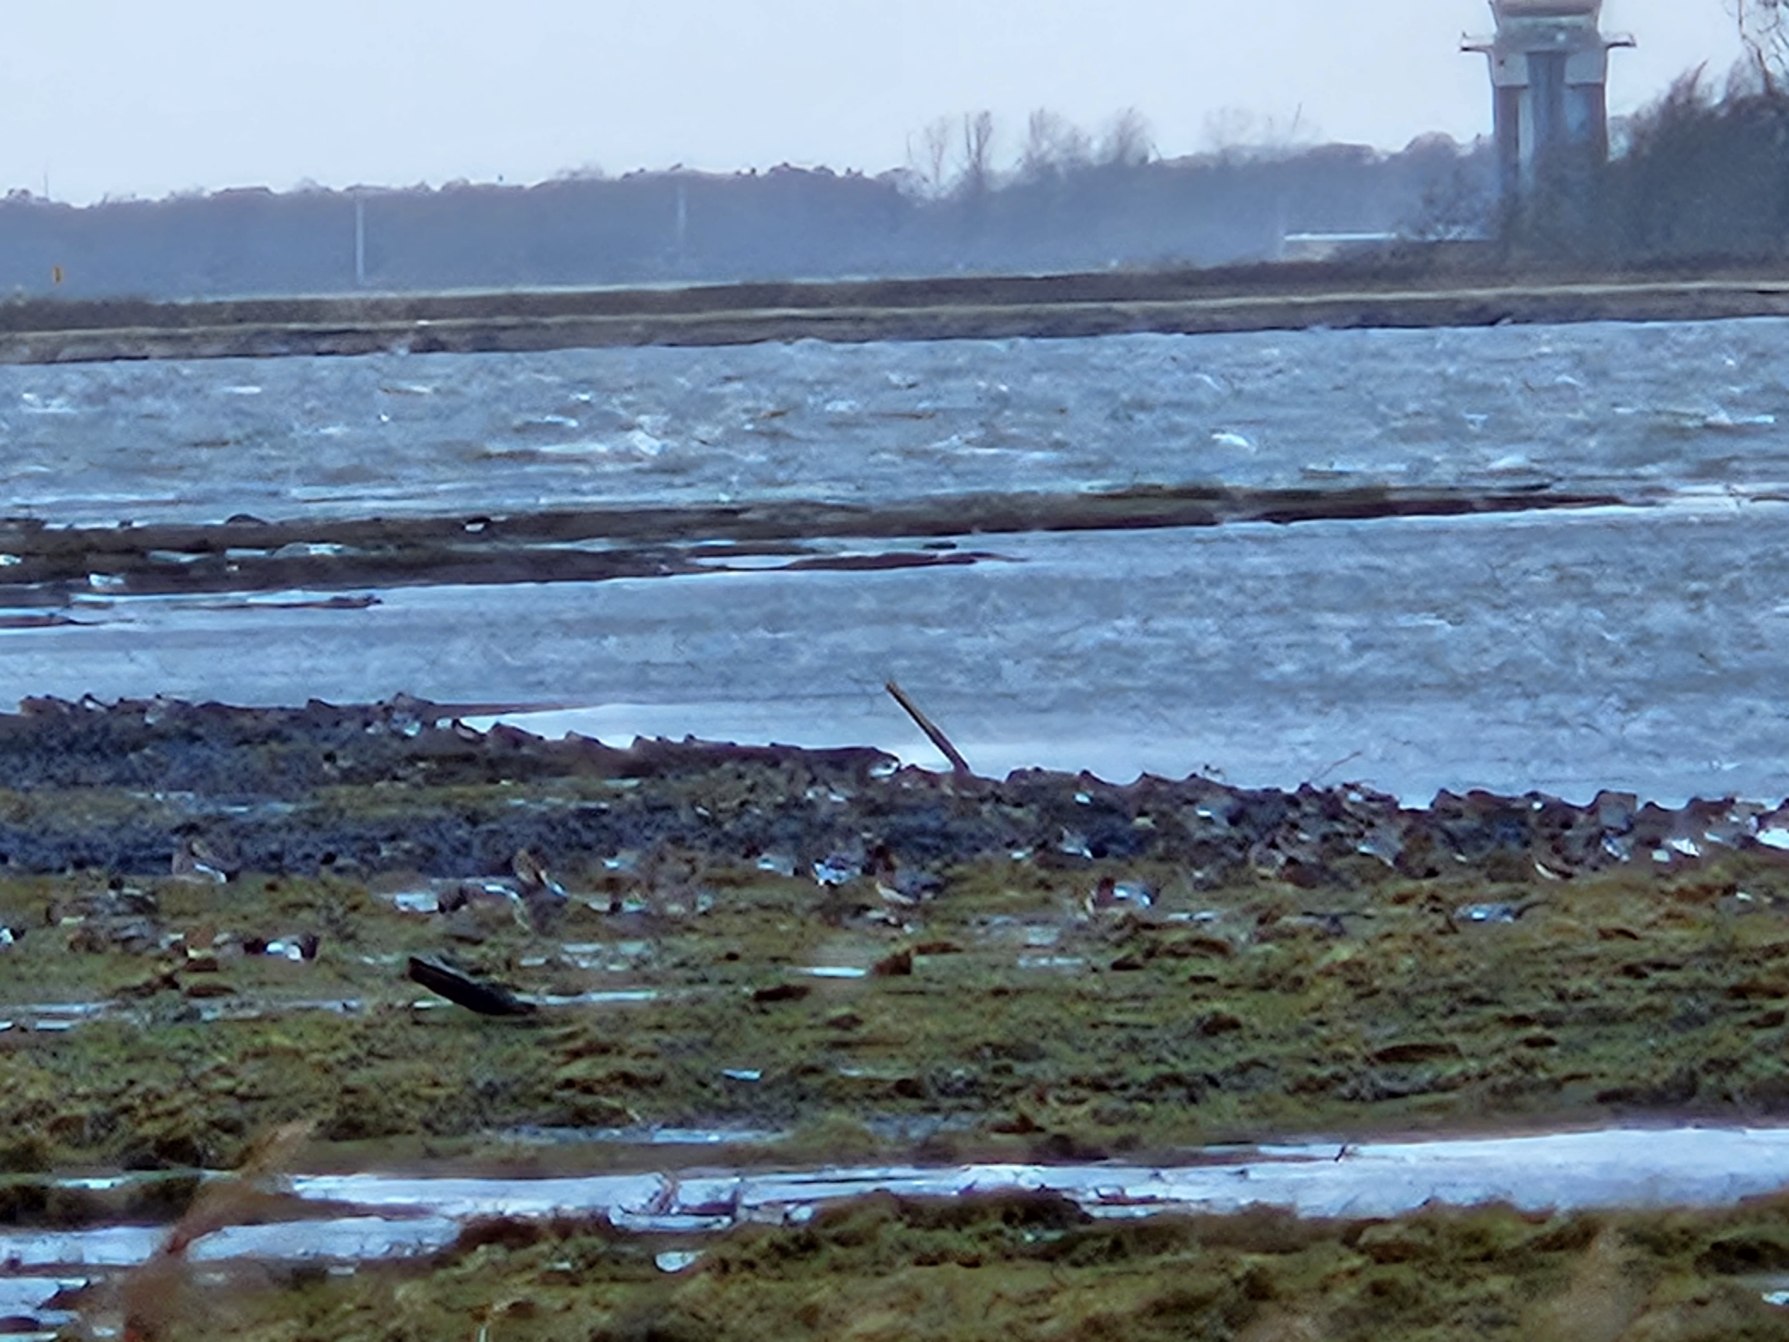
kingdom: Animalia
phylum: Chordata
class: Aves
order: Anseriformes
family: Anatidae
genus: Mareca
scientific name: Mareca penelope
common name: Pibeand
